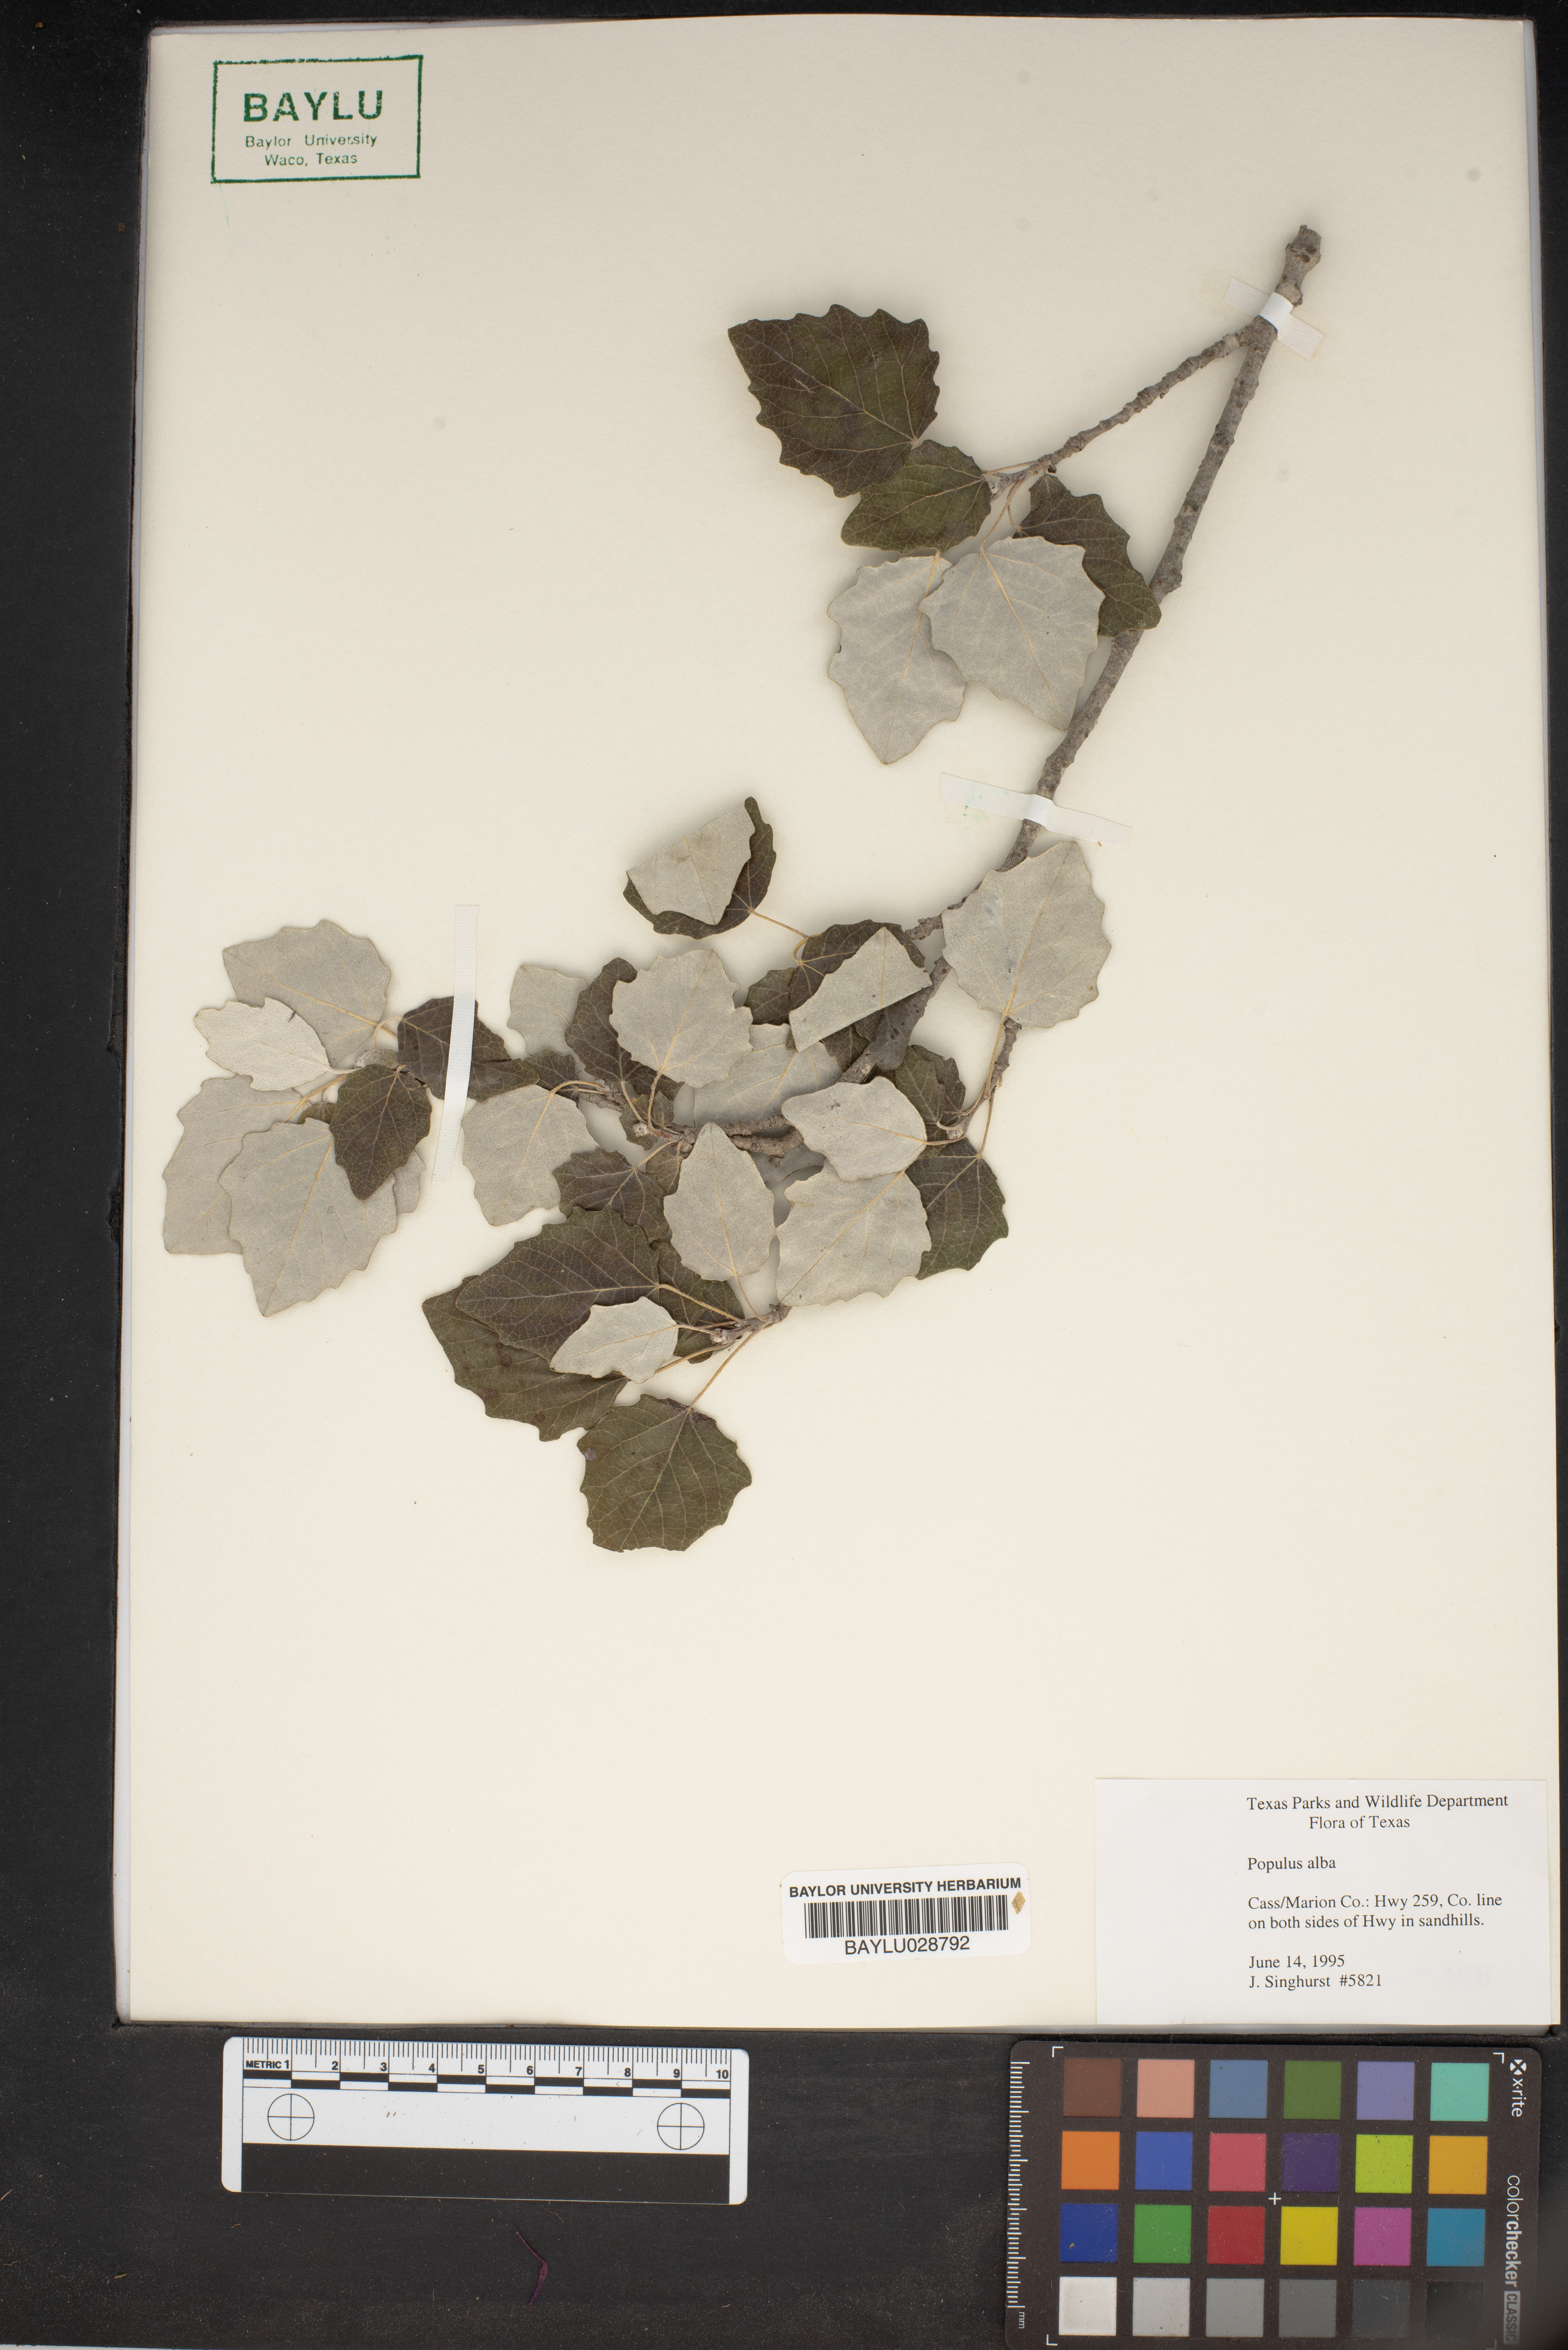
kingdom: Plantae
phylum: Tracheophyta
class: Magnoliopsida
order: Malpighiales
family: Salicaceae
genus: Populus
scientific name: Populus alba
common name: White poplar
